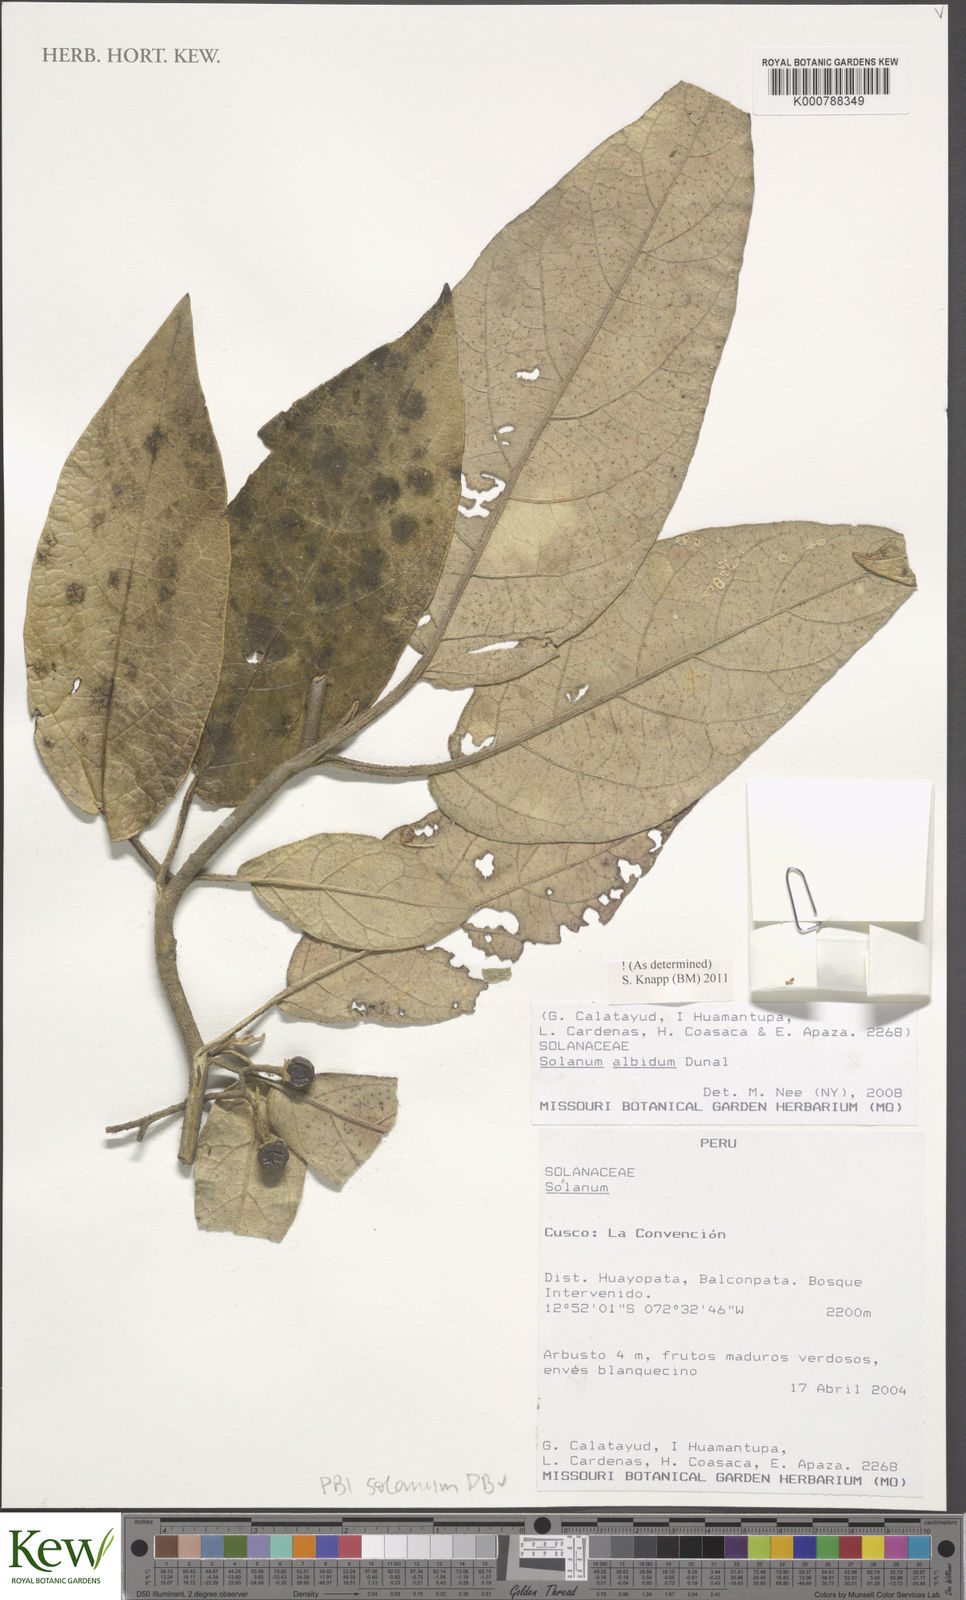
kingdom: Plantae
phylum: Tracheophyta
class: Magnoliopsida
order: Solanales
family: Solanaceae
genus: Solanum
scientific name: Solanum albidum
